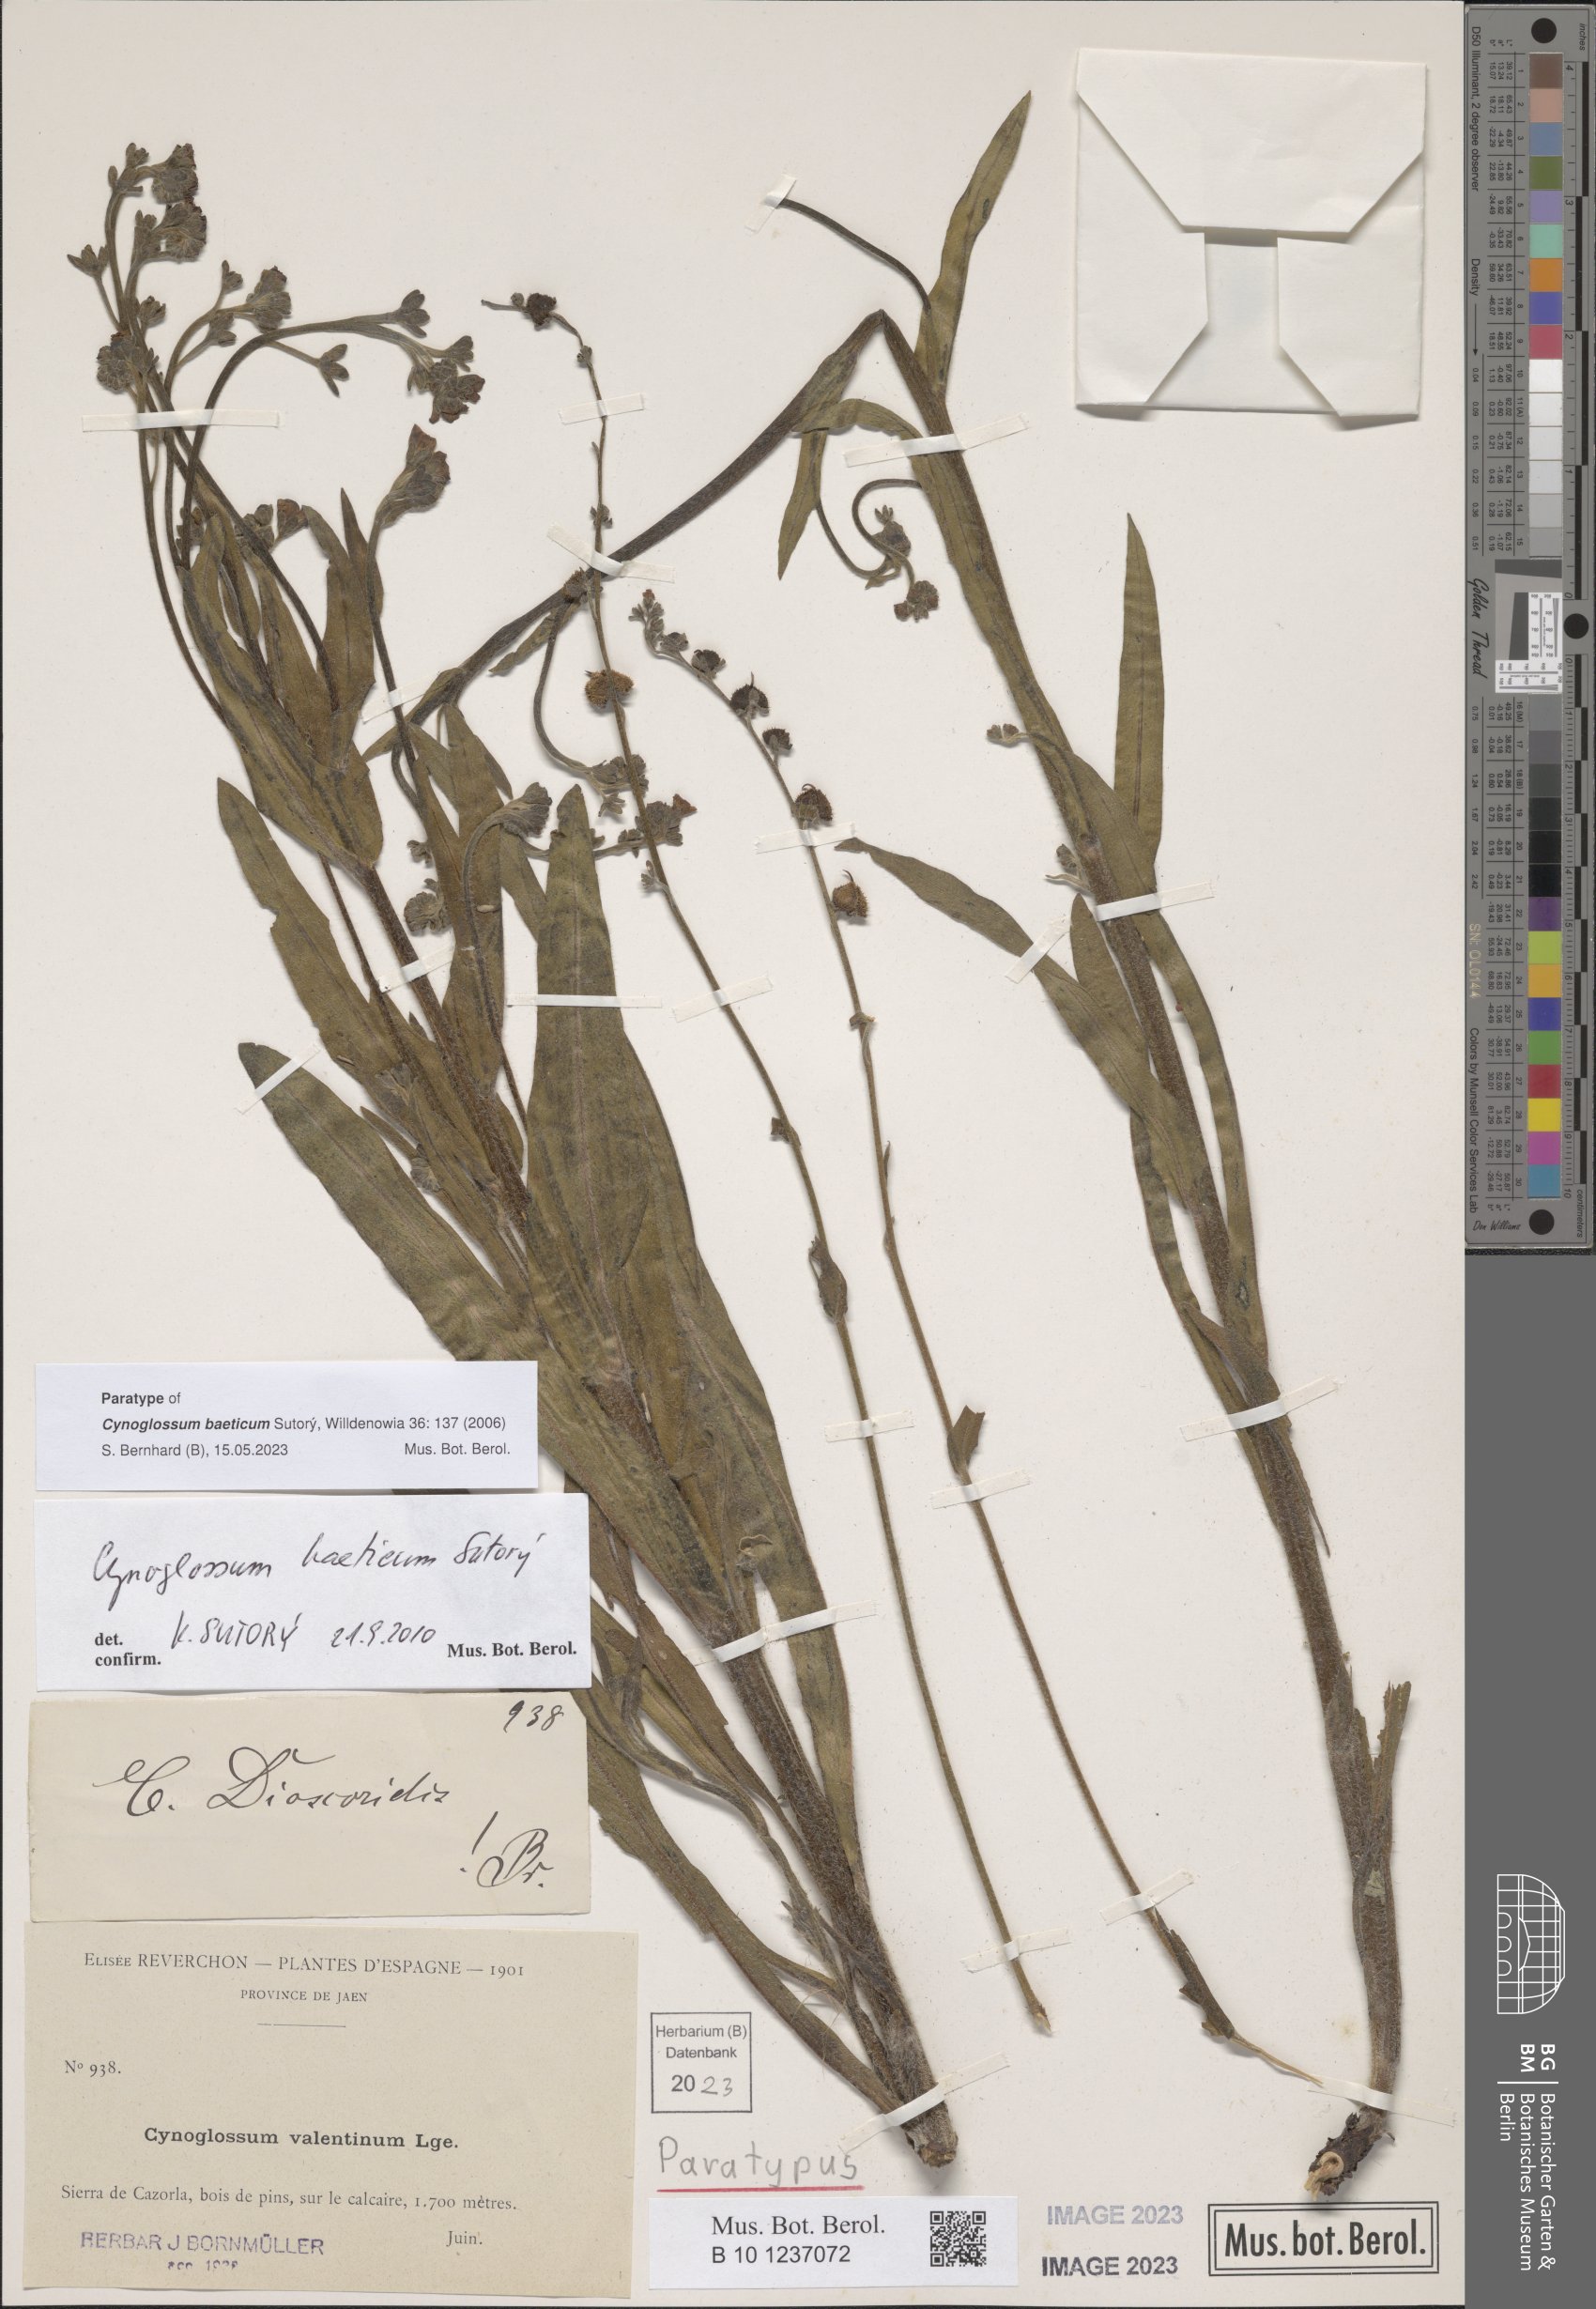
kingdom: Plantae
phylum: Tracheophyta
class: Magnoliopsida
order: Boraginales
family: Boraginaceae
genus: Cynoglossum
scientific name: Cynoglossum melananthum
